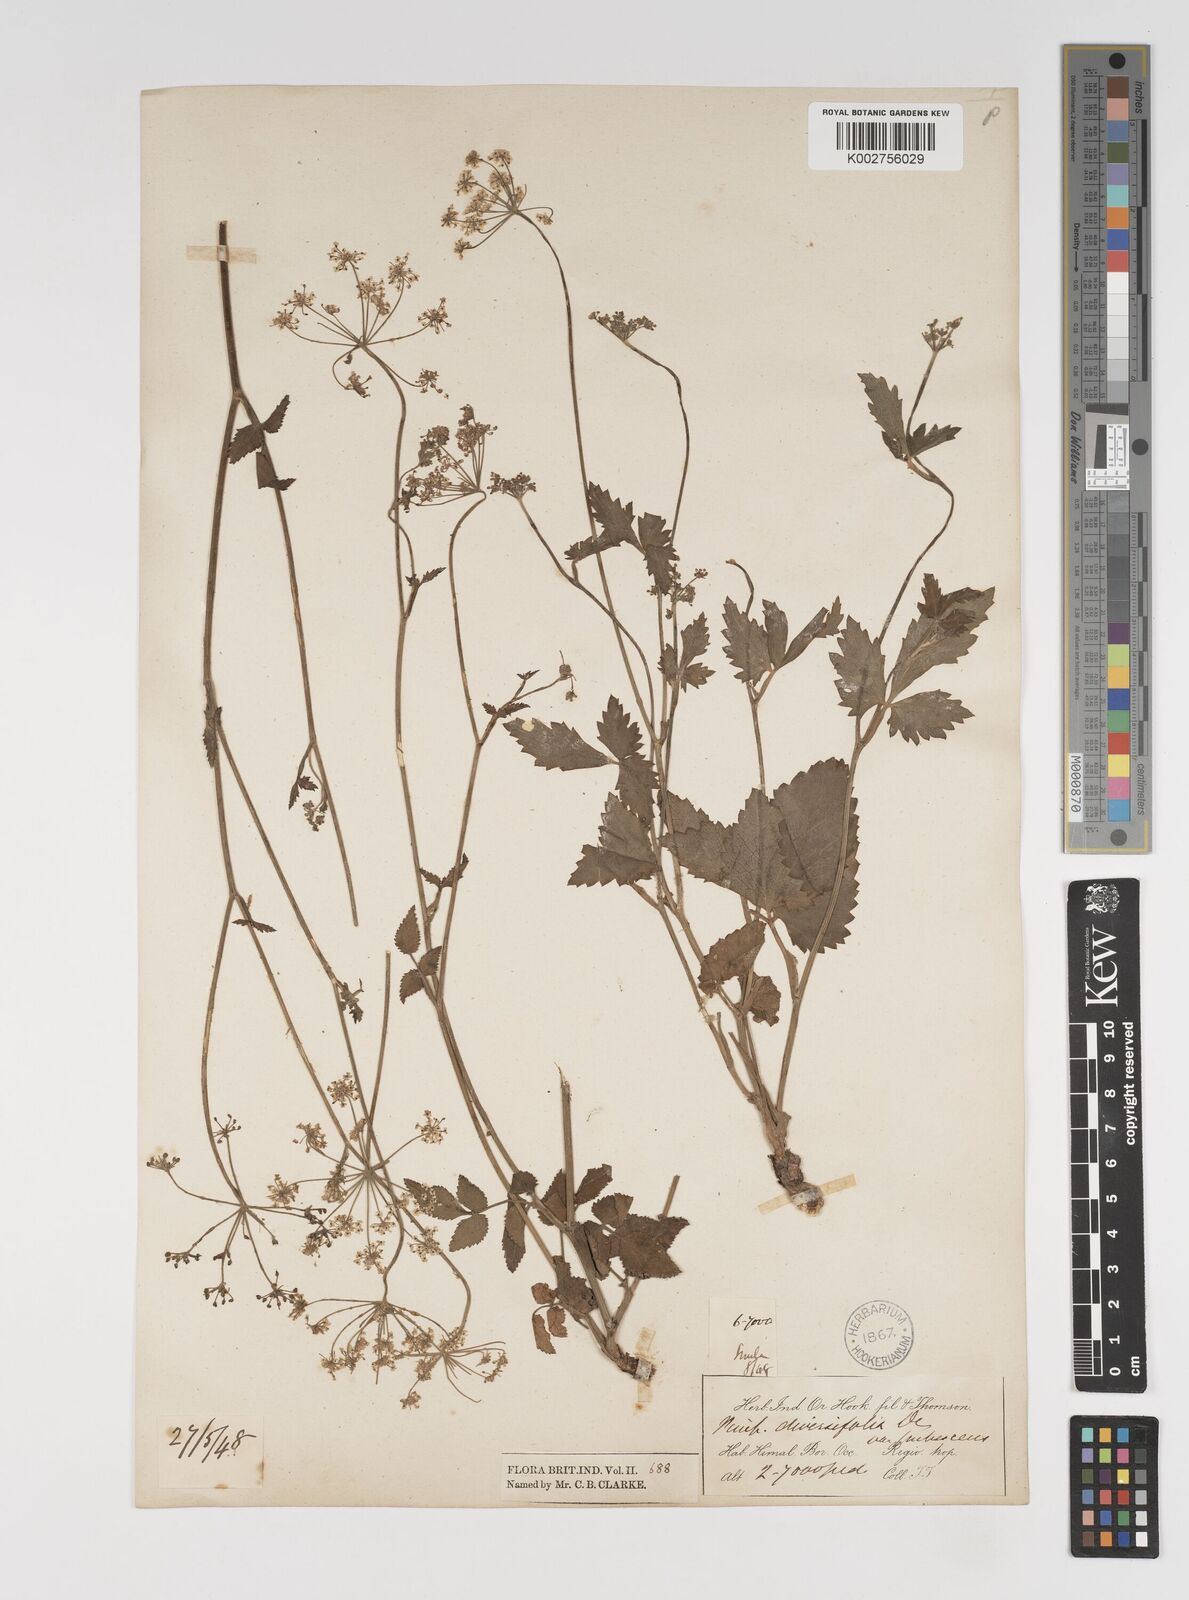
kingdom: Plantae
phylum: Tracheophyta
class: Magnoliopsida
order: Apiales
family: Apiaceae
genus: Pimpinella
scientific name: Pimpinella diversifolia
